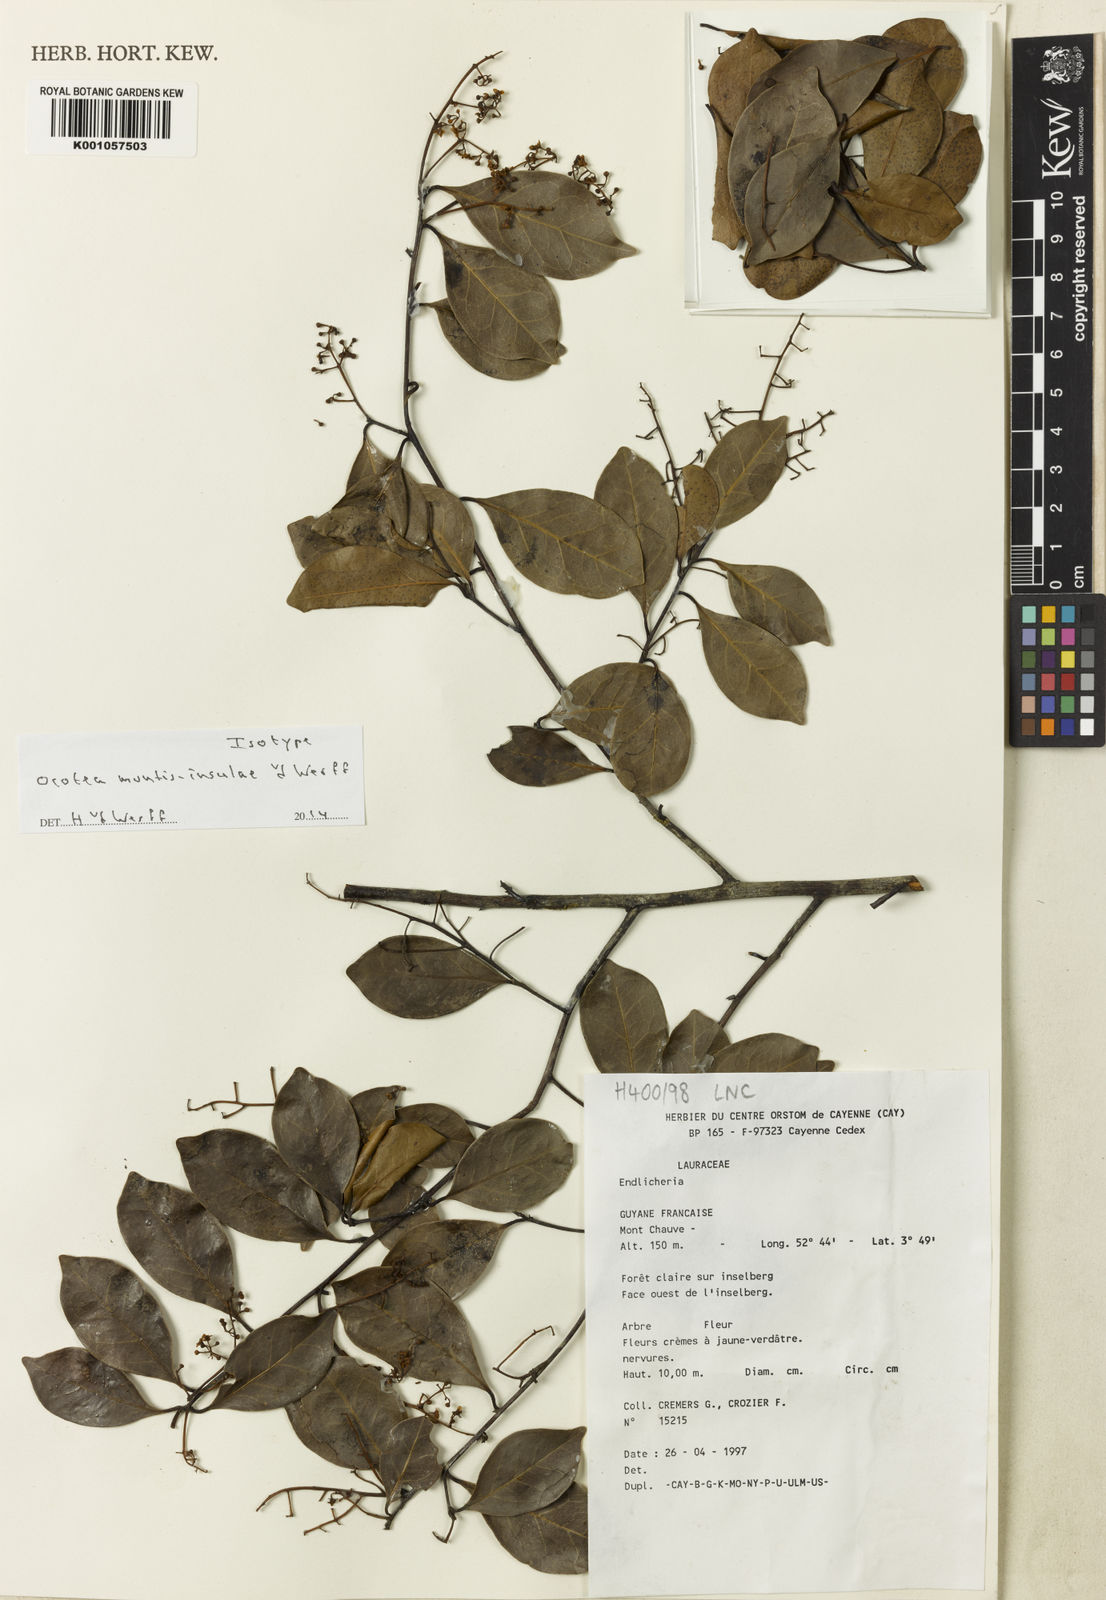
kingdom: Plantae
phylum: Tracheophyta
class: Magnoliopsida
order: Laurales
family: Lauraceae
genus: Ocotea
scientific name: Ocotea
